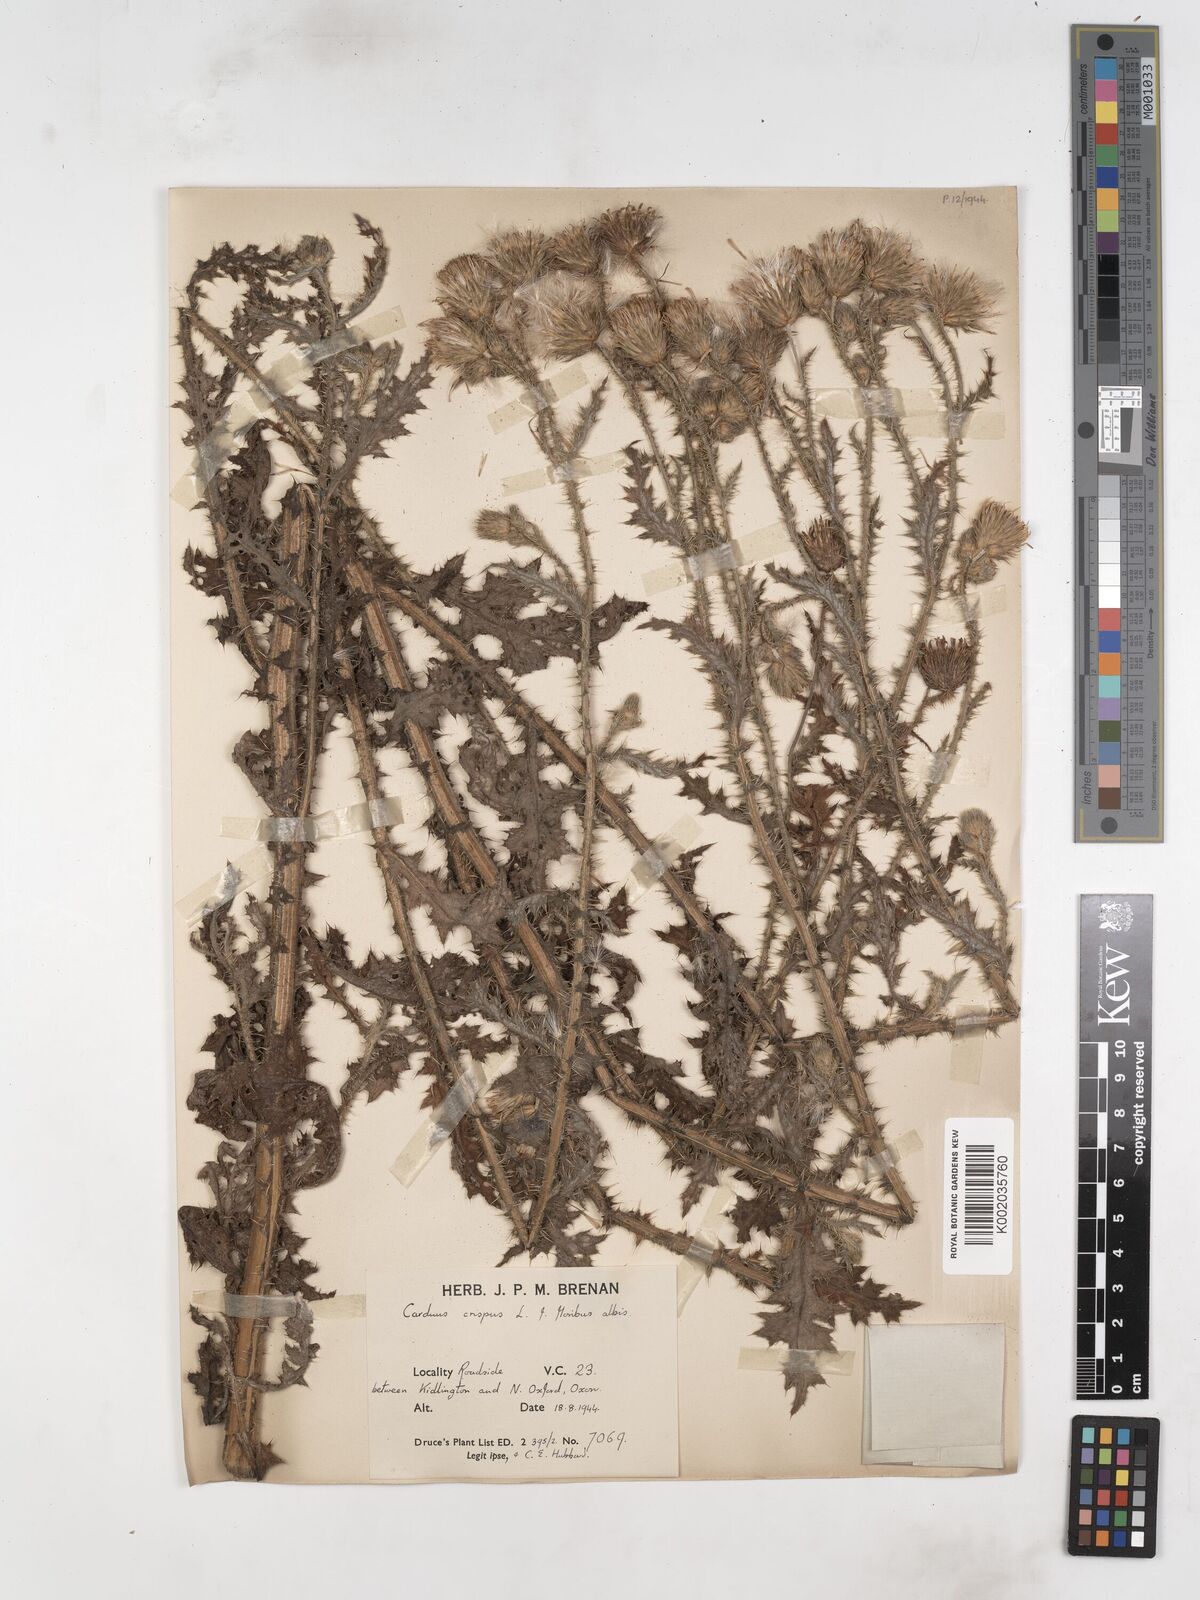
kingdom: Plantae
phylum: Tracheophyta
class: Magnoliopsida
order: Asterales
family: Asteraceae
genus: Carduus
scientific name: Carduus acanthoides
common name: Plumeless thistle
